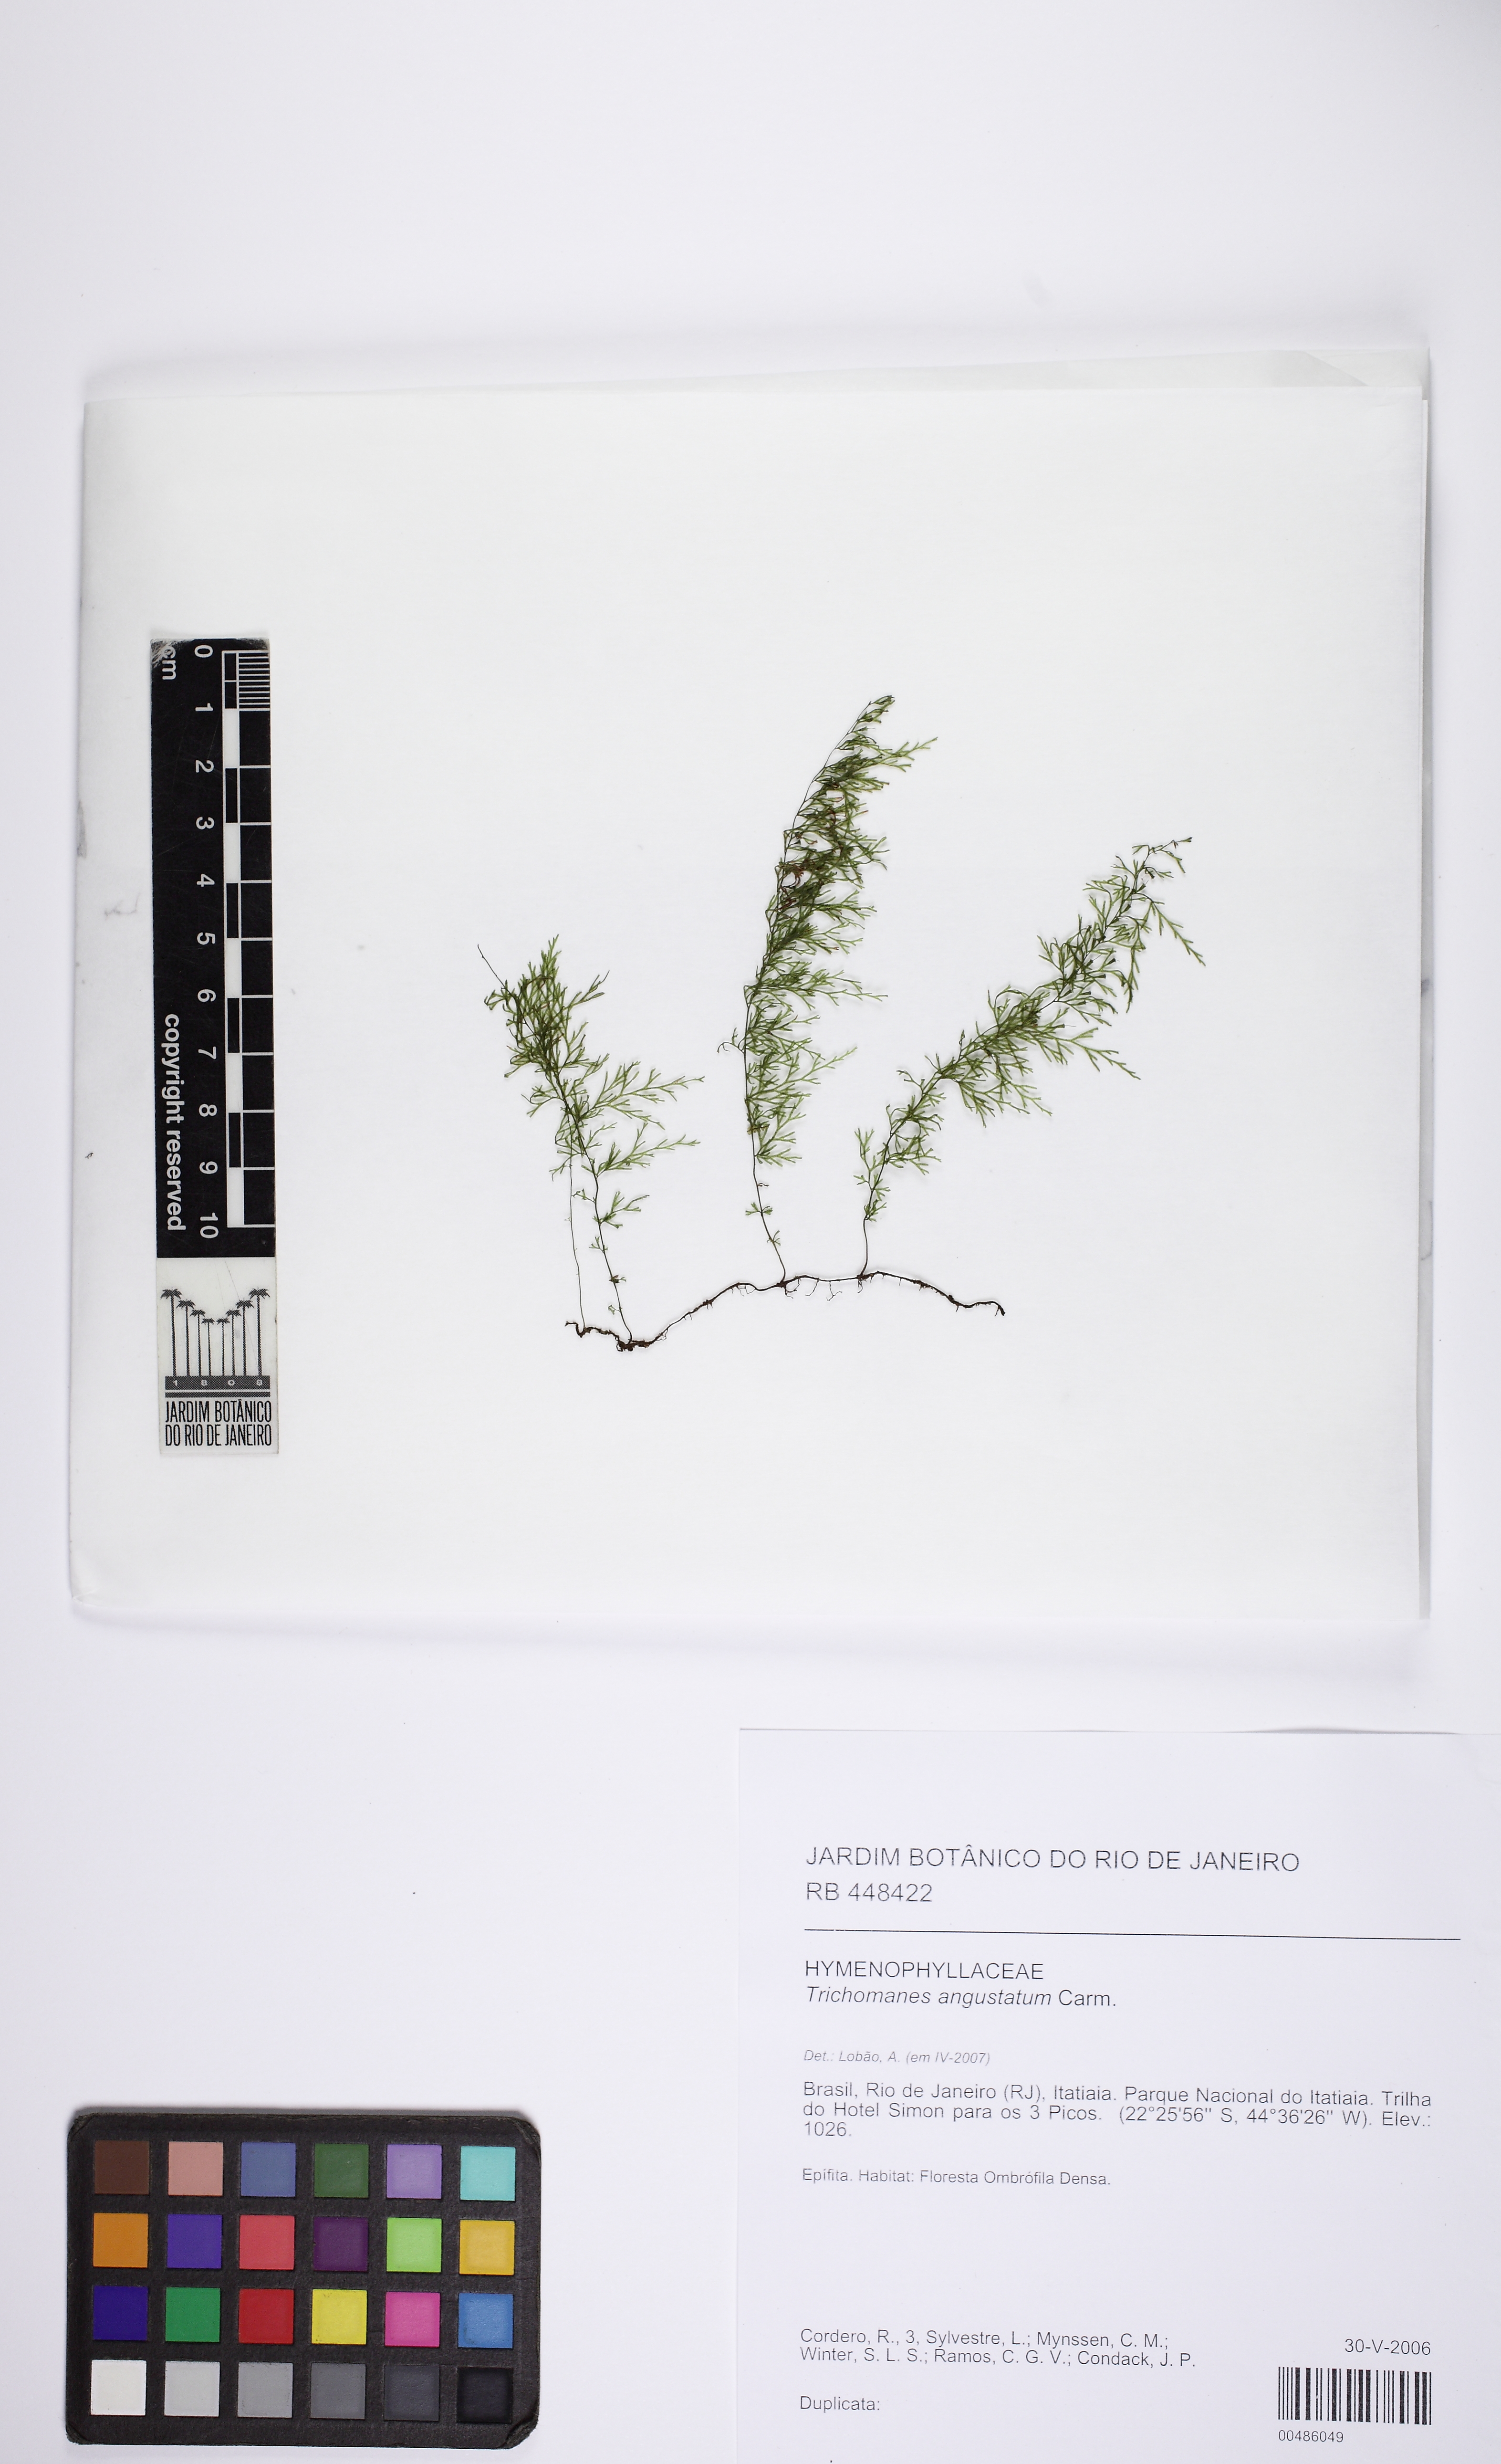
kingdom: Plantae
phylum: Tracheophyta
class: Polypodiopsida
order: Hymenophyllales
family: Hymenophyllaceae
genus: Polyphlebium
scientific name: Polyphlebium angustatum
